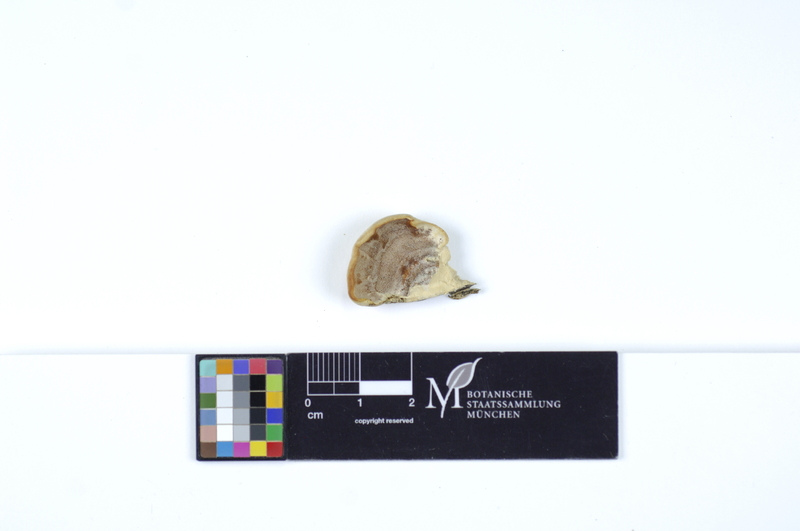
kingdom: Fungi
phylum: Basidiomycota
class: Agaricomycetes
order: Polyporales
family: Irpicaceae
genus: Vitreoporus
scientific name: Vitreoporus dichrous
